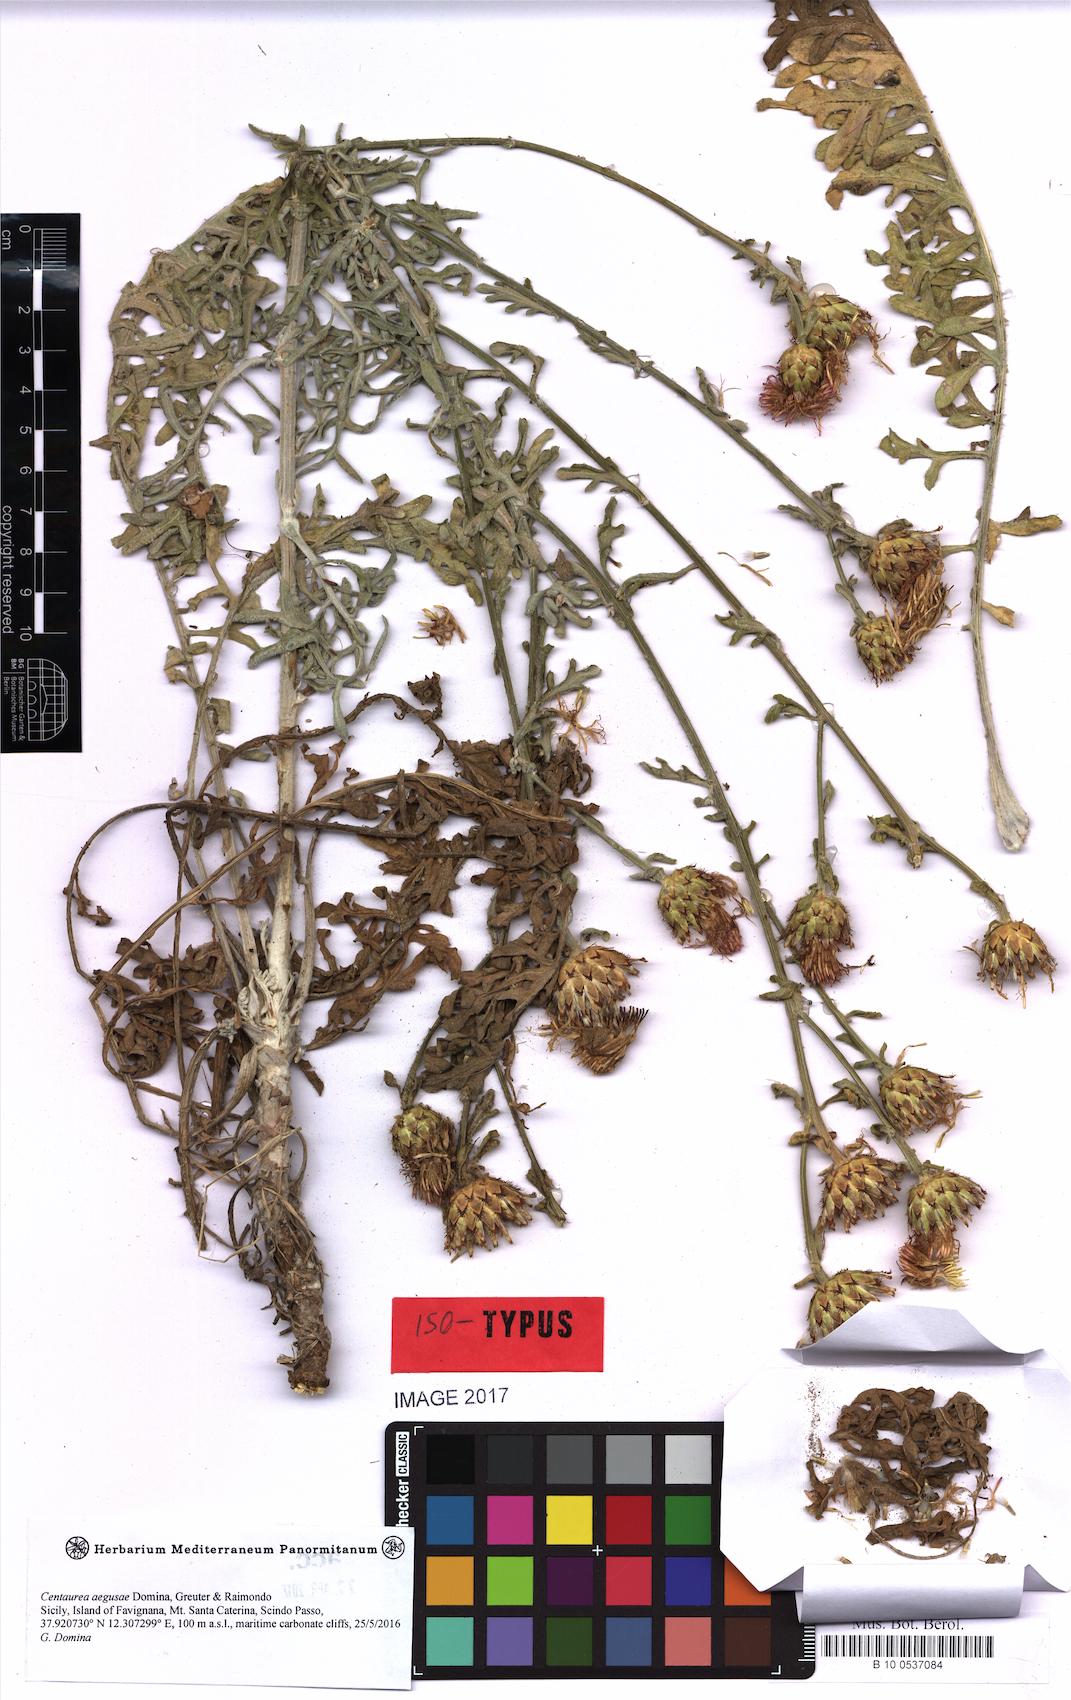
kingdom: Plantae
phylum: Tracheophyta
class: Magnoliopsida
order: Asterales
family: Asteraceae
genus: Centaurea
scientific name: Centaurea panormitana
